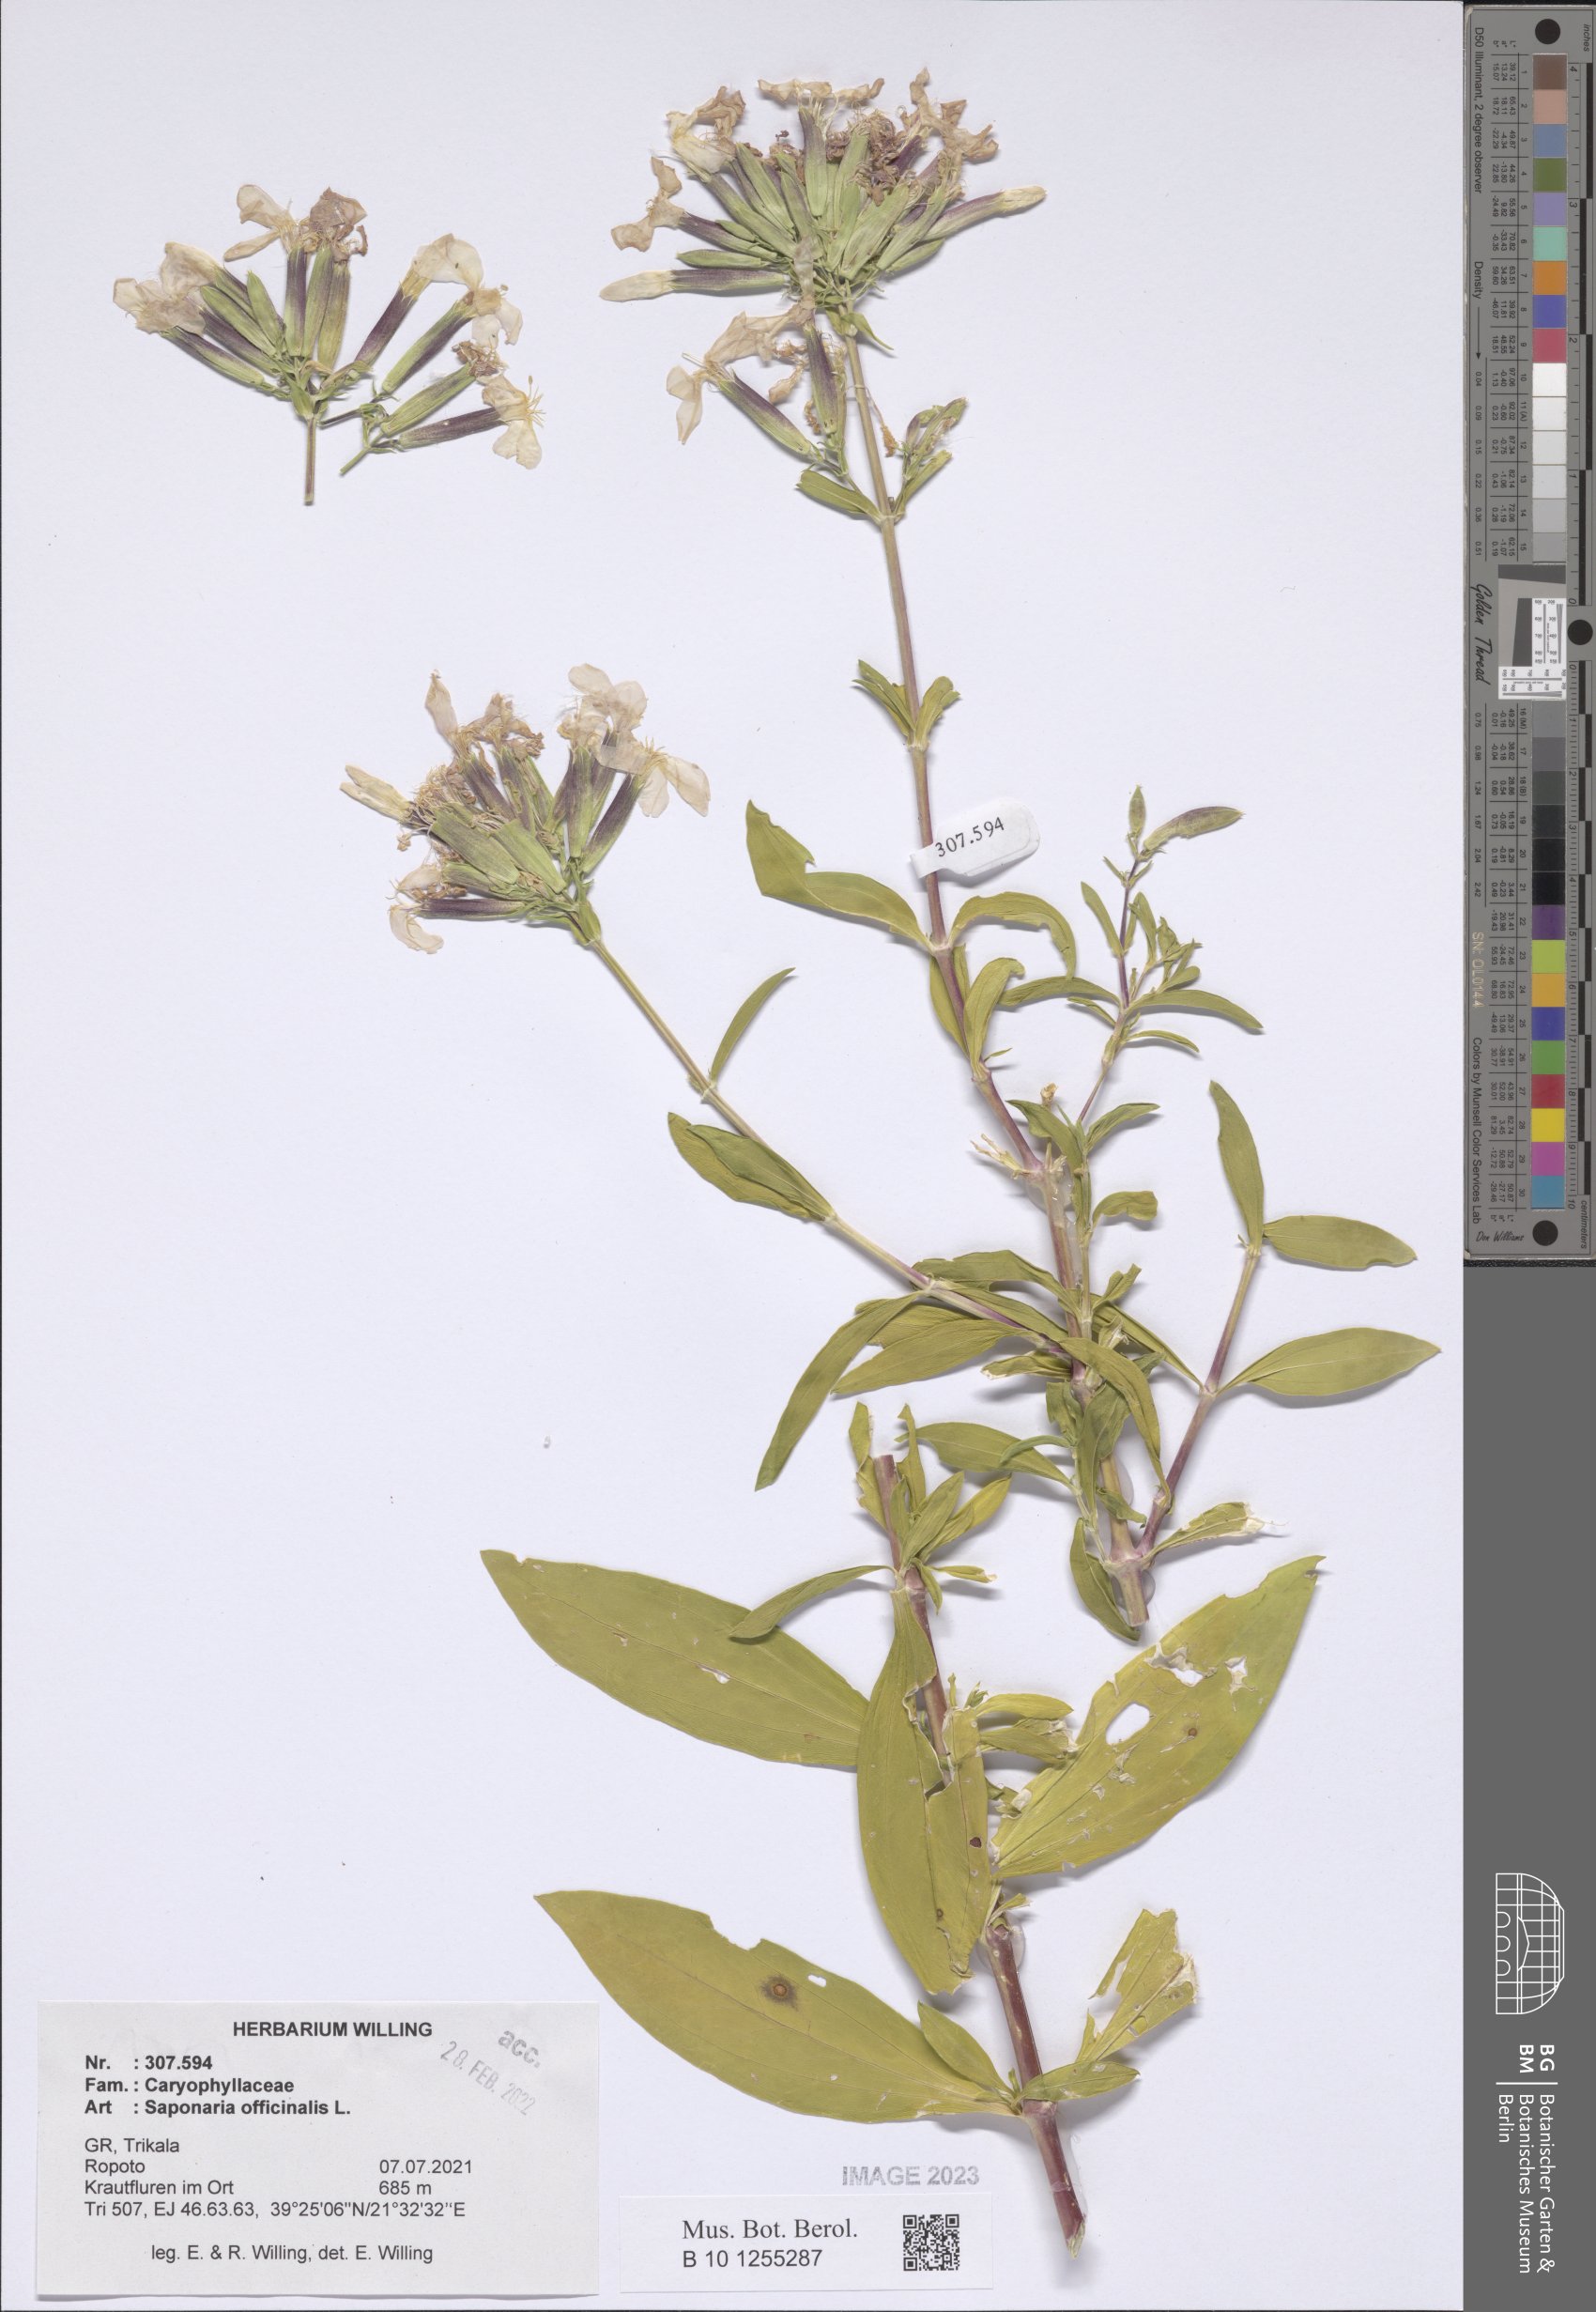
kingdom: Plantae
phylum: Tracheophyta
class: Magnoliopsida
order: Caryophyllales
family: Caryophyllaceae
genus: Saponaria
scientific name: Saponaria officinalis
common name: Soapwort
